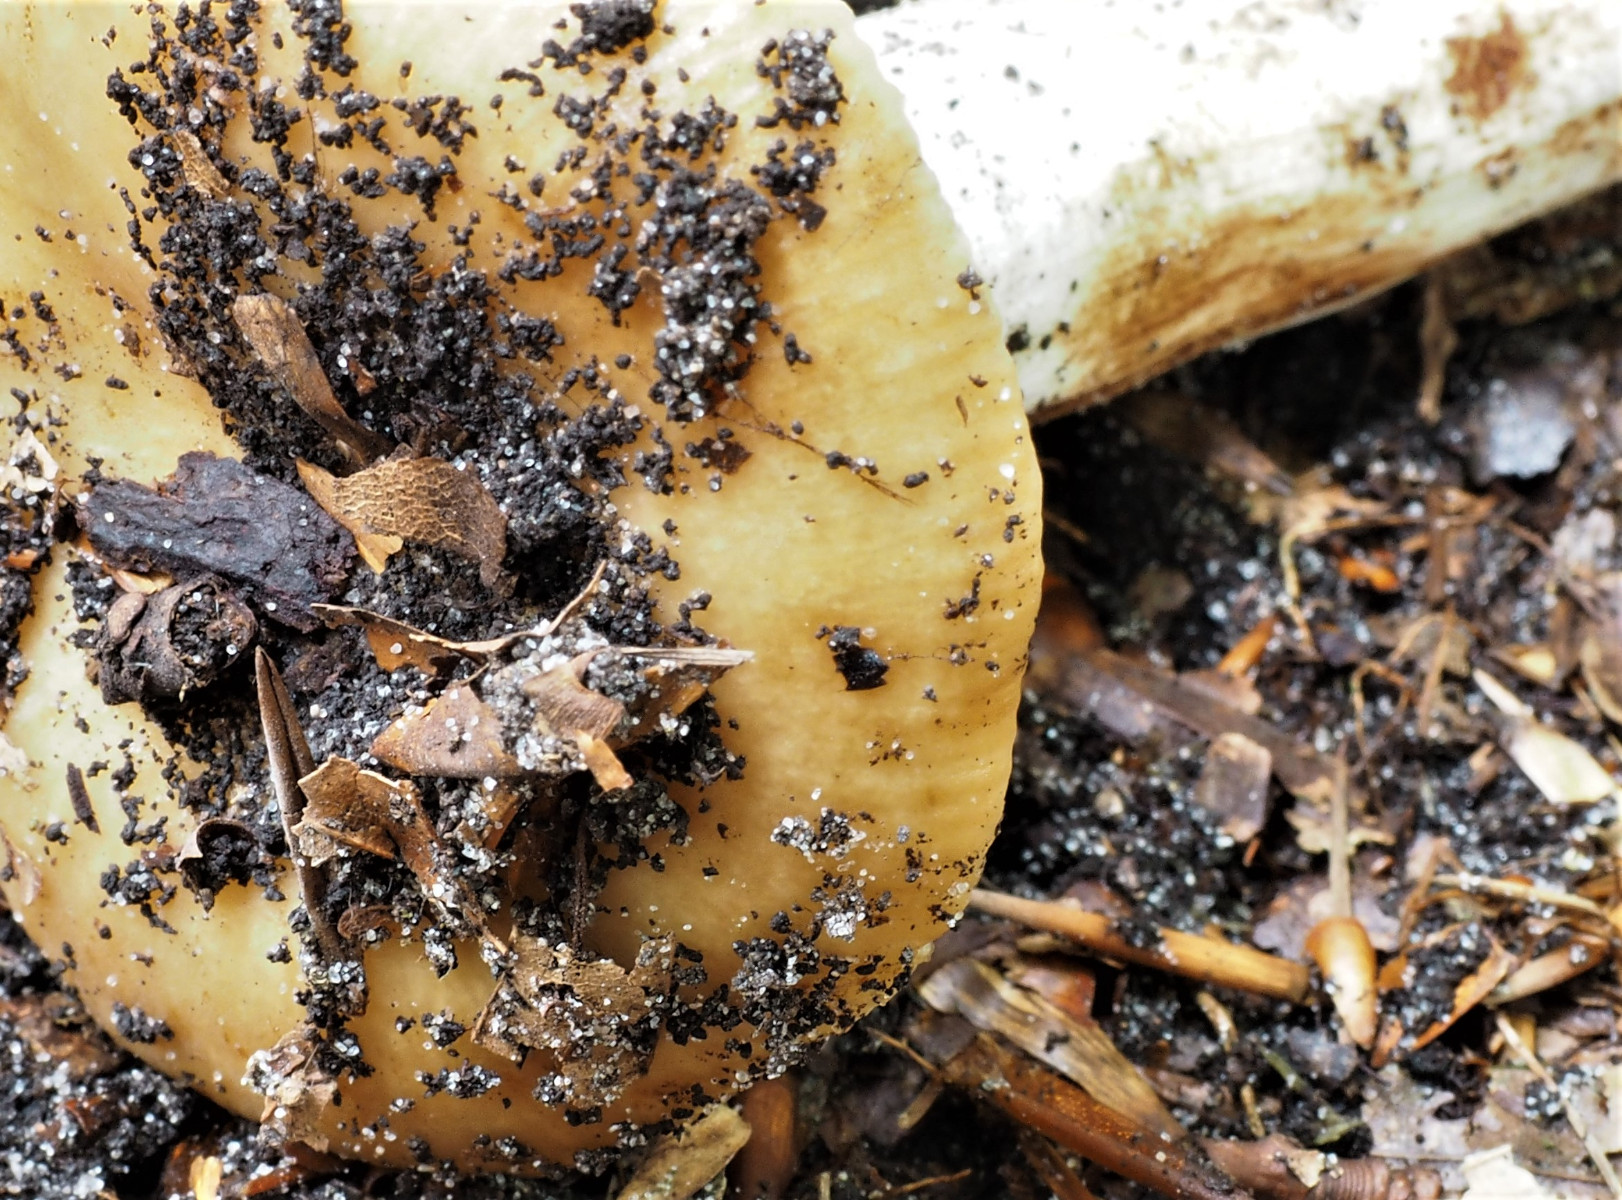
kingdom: Fungi
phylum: Basidiomycota
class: Agaricomycetes
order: Russulales
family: Russulaceae
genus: Russula
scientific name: Russula grata
